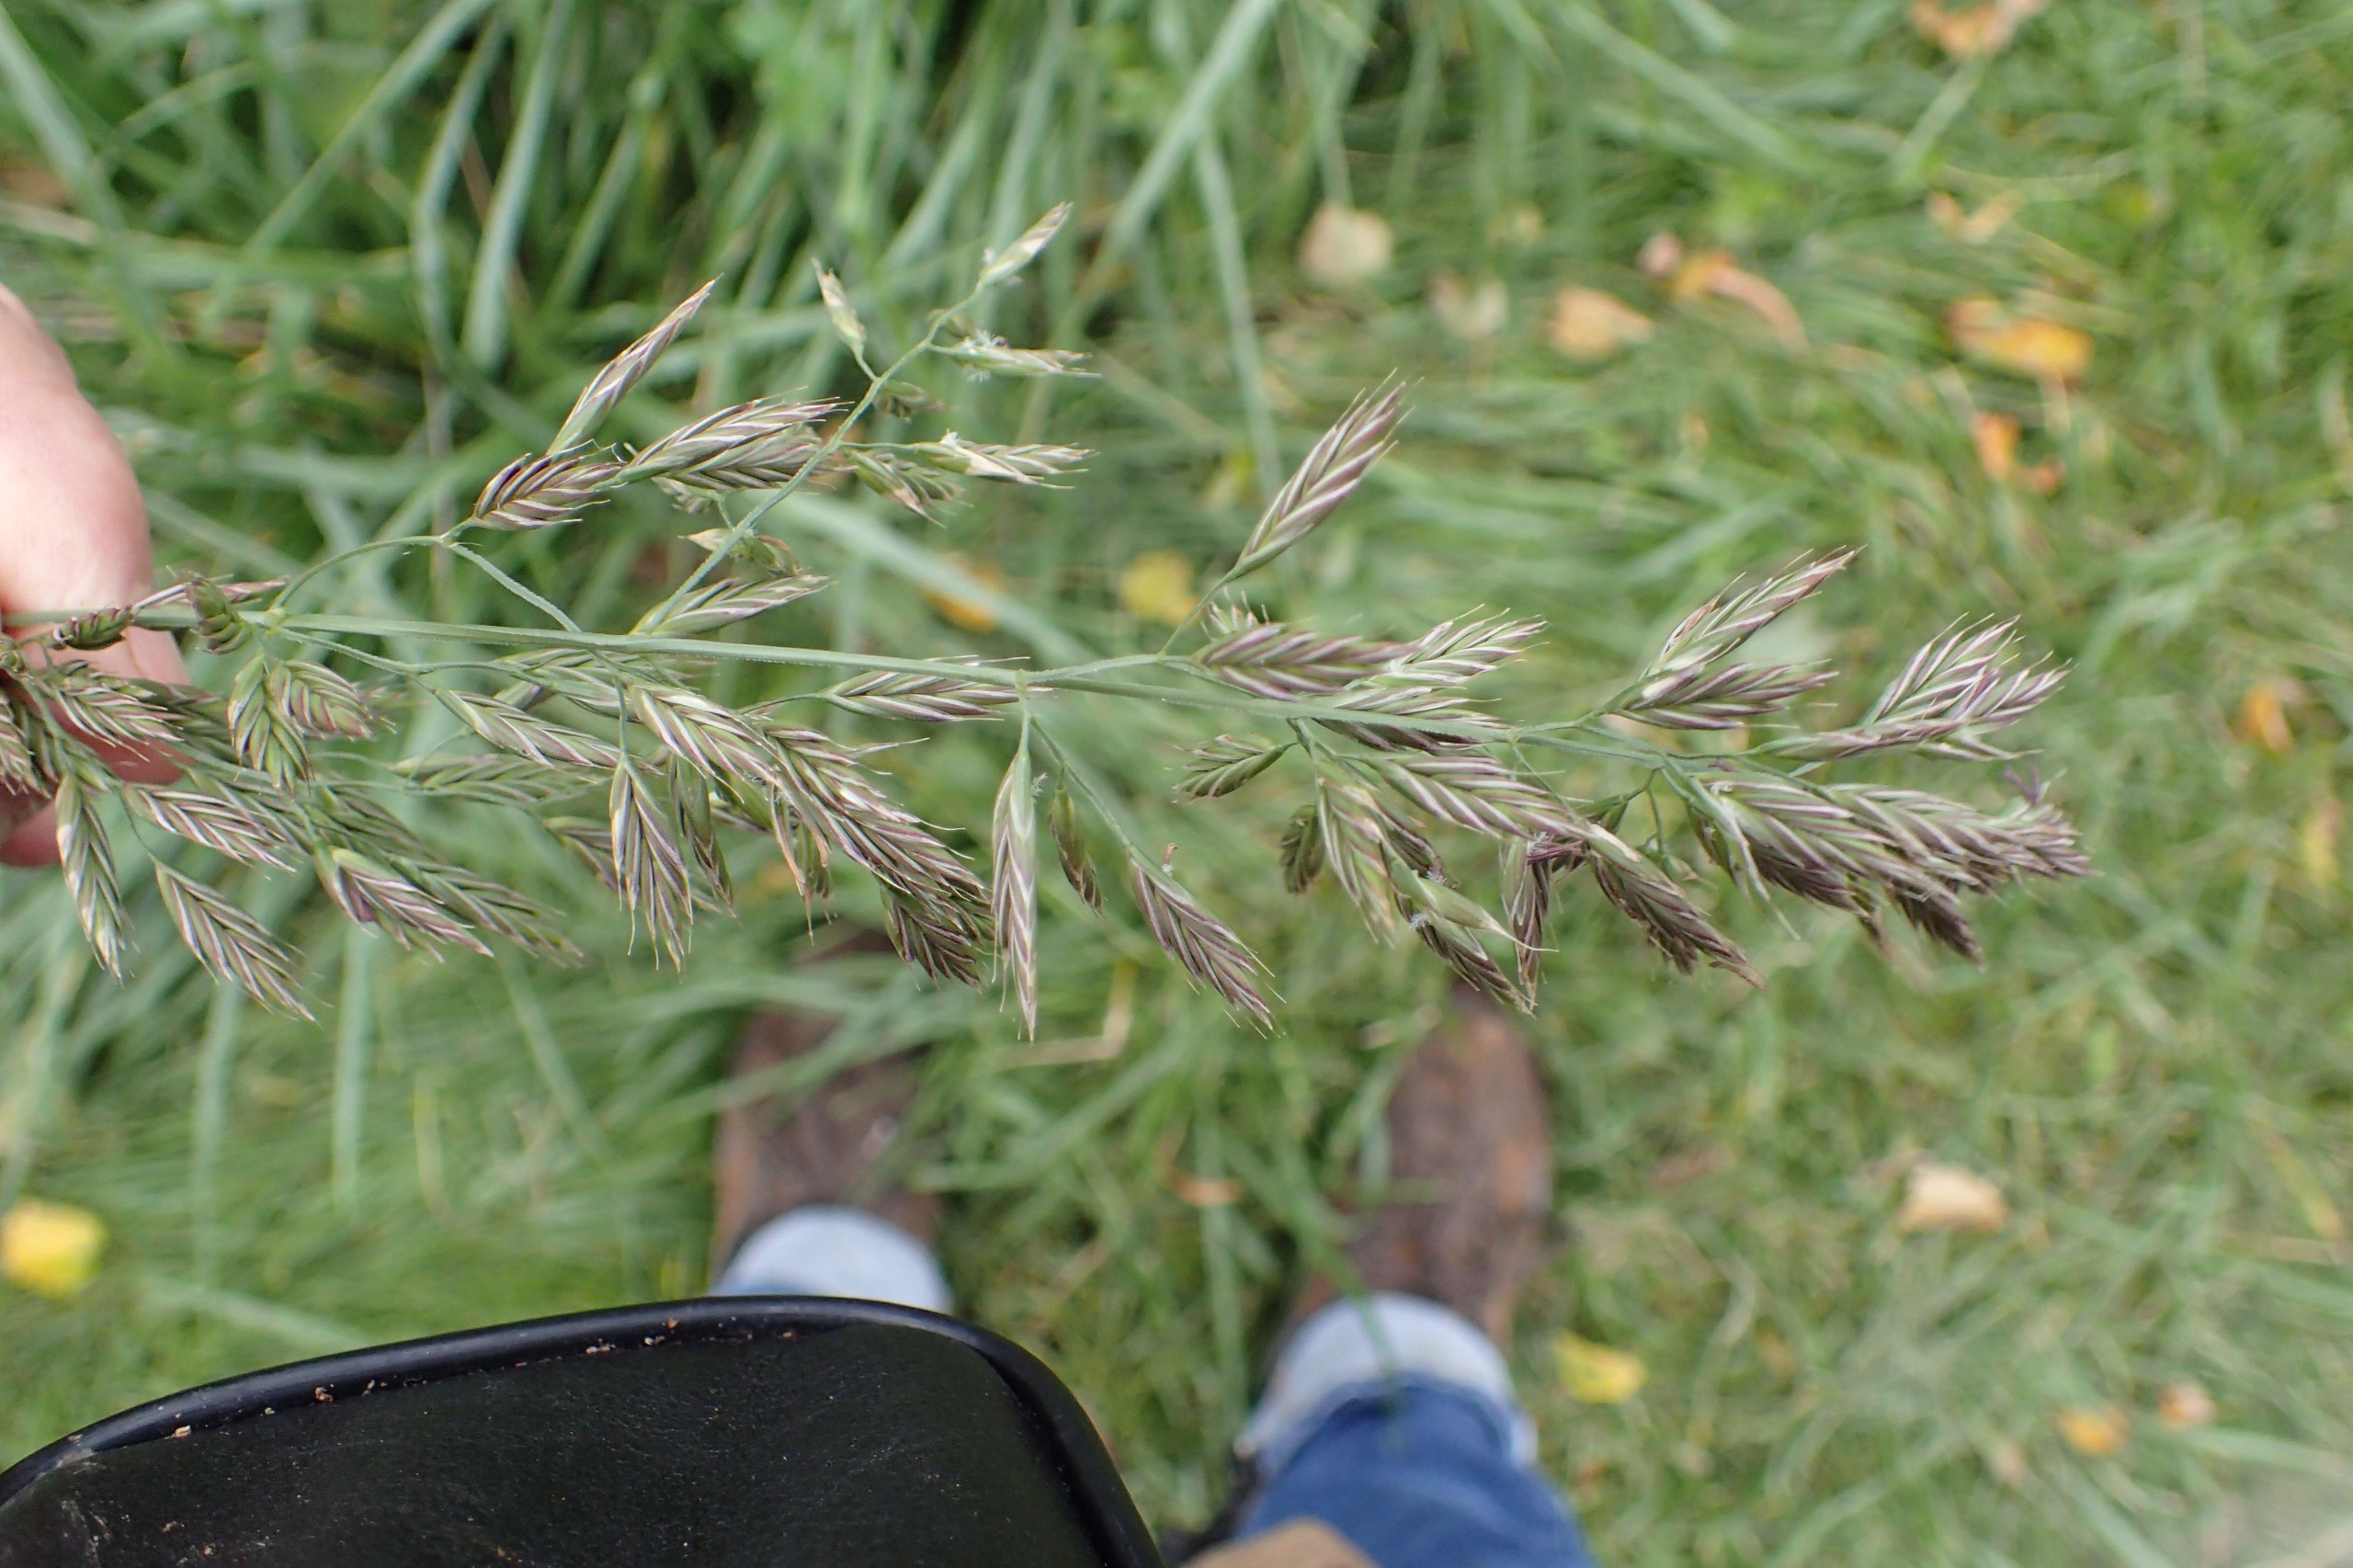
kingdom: Plantae
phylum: Tracheophyta
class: Liliopsida
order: Poales
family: Poaceae
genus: Lolium
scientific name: Lolium arundinaceum
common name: Strand-svingel
